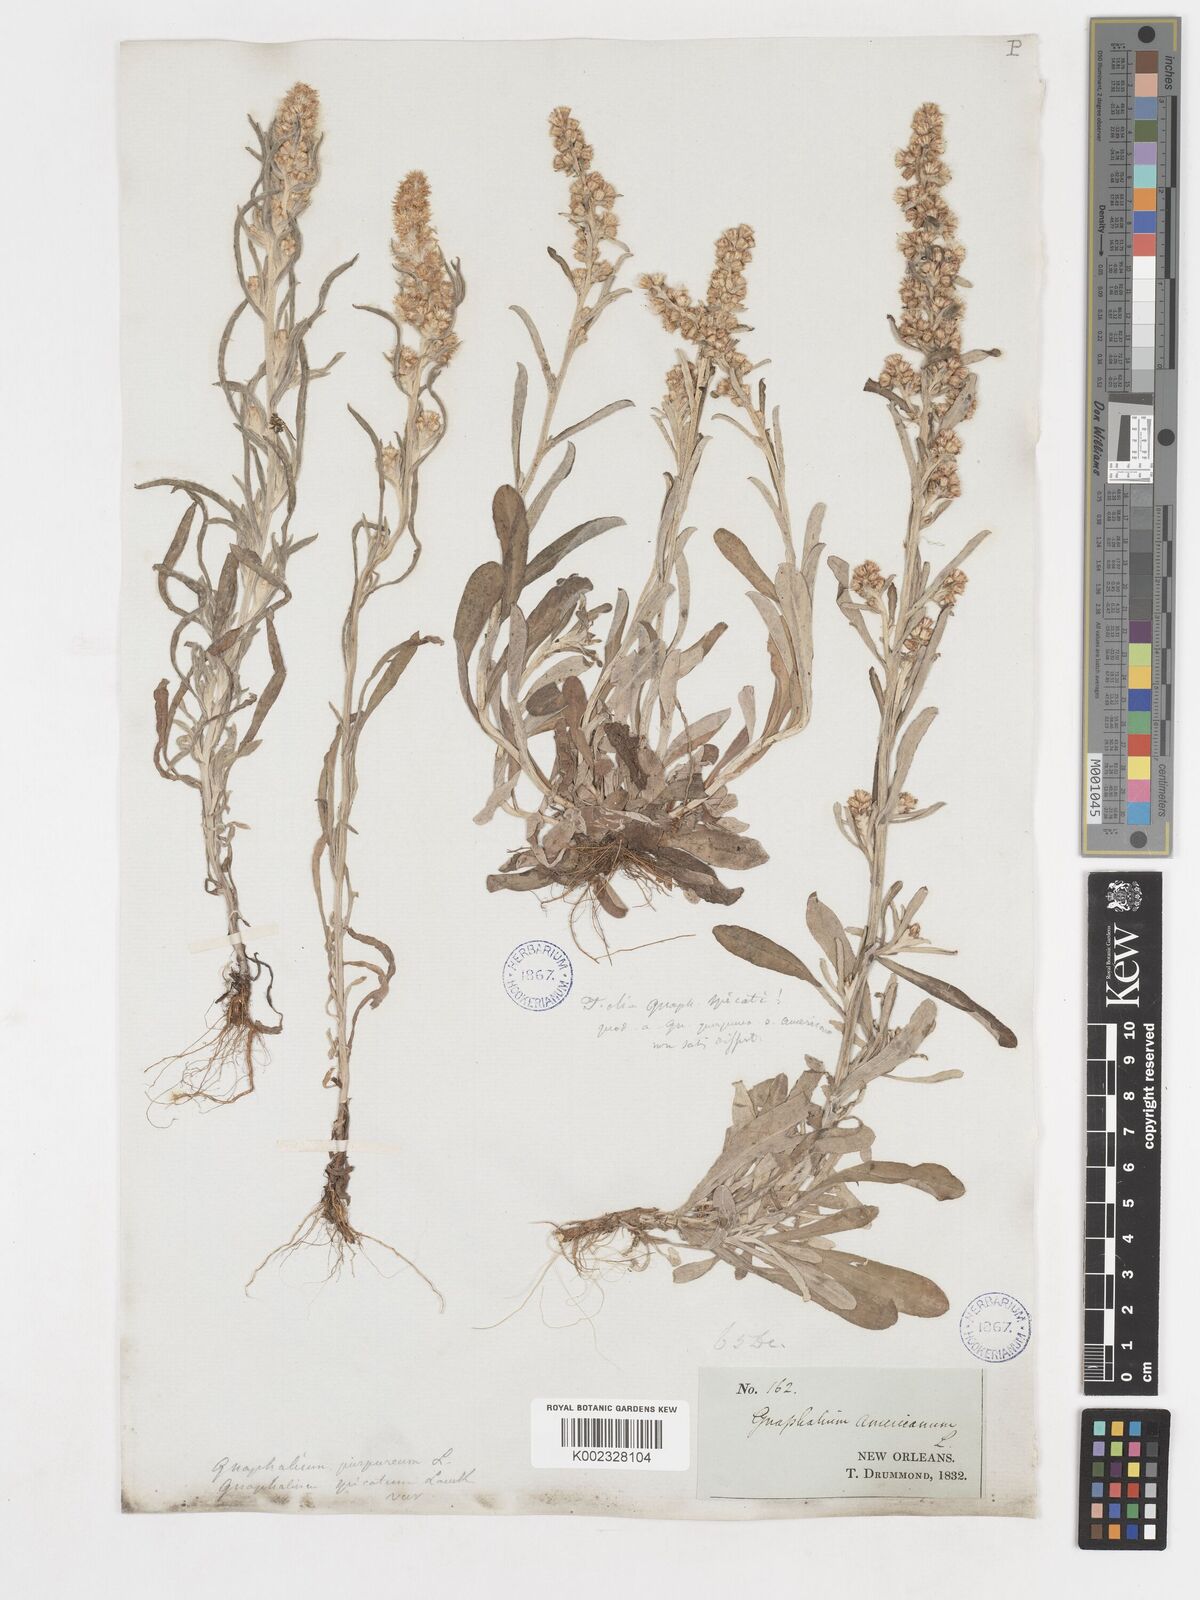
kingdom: Plantae
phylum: Tracheophyta
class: Magnoliopsida
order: Asterales
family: Asteraceae
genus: Gamochaeta
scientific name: Gamochaeta purpurea
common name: Purple cudweed
